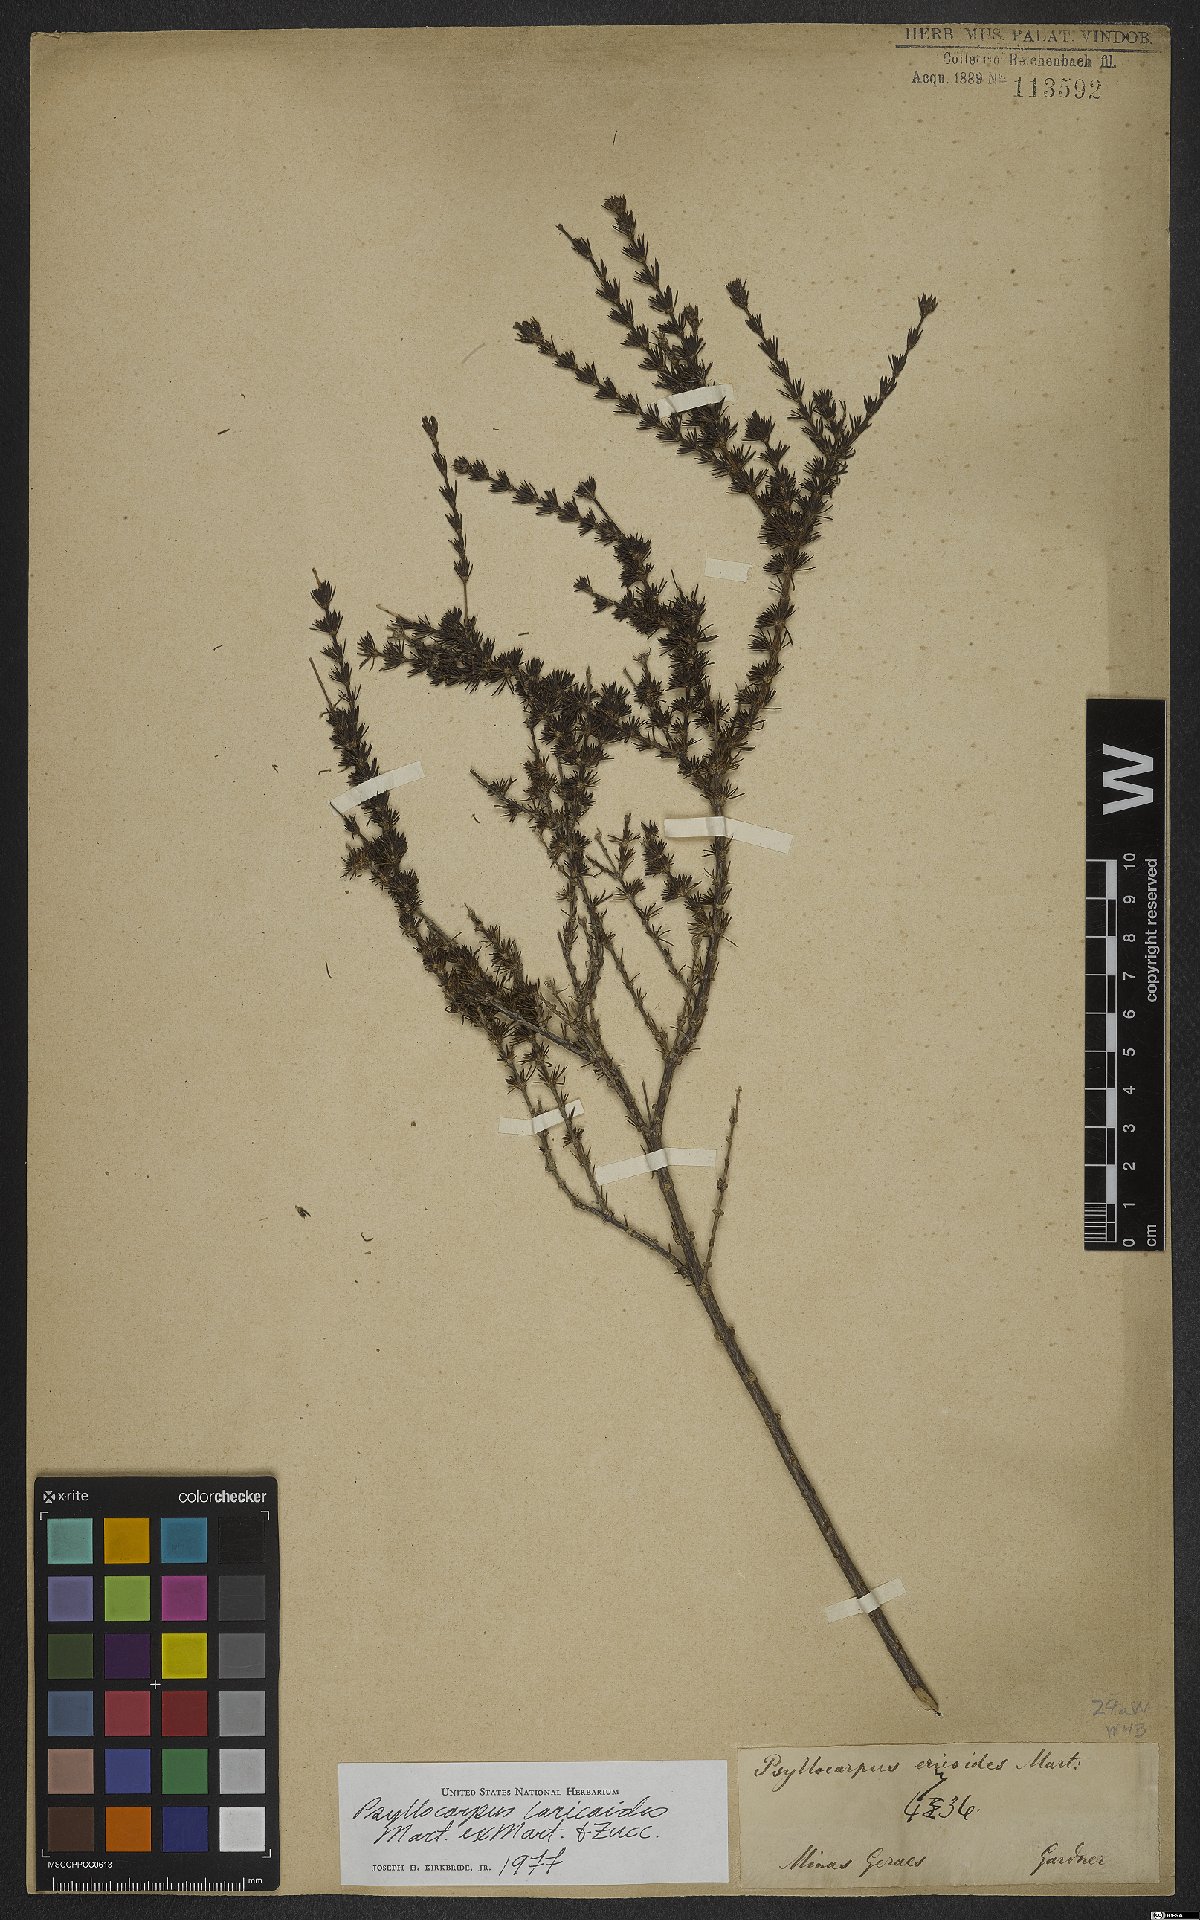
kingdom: Plantae
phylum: Tracheophyta
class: Magnoliopsida
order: Gentianales
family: Rubiaceae
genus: Psyllocarpus
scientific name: Psyllocarpus laricoides
